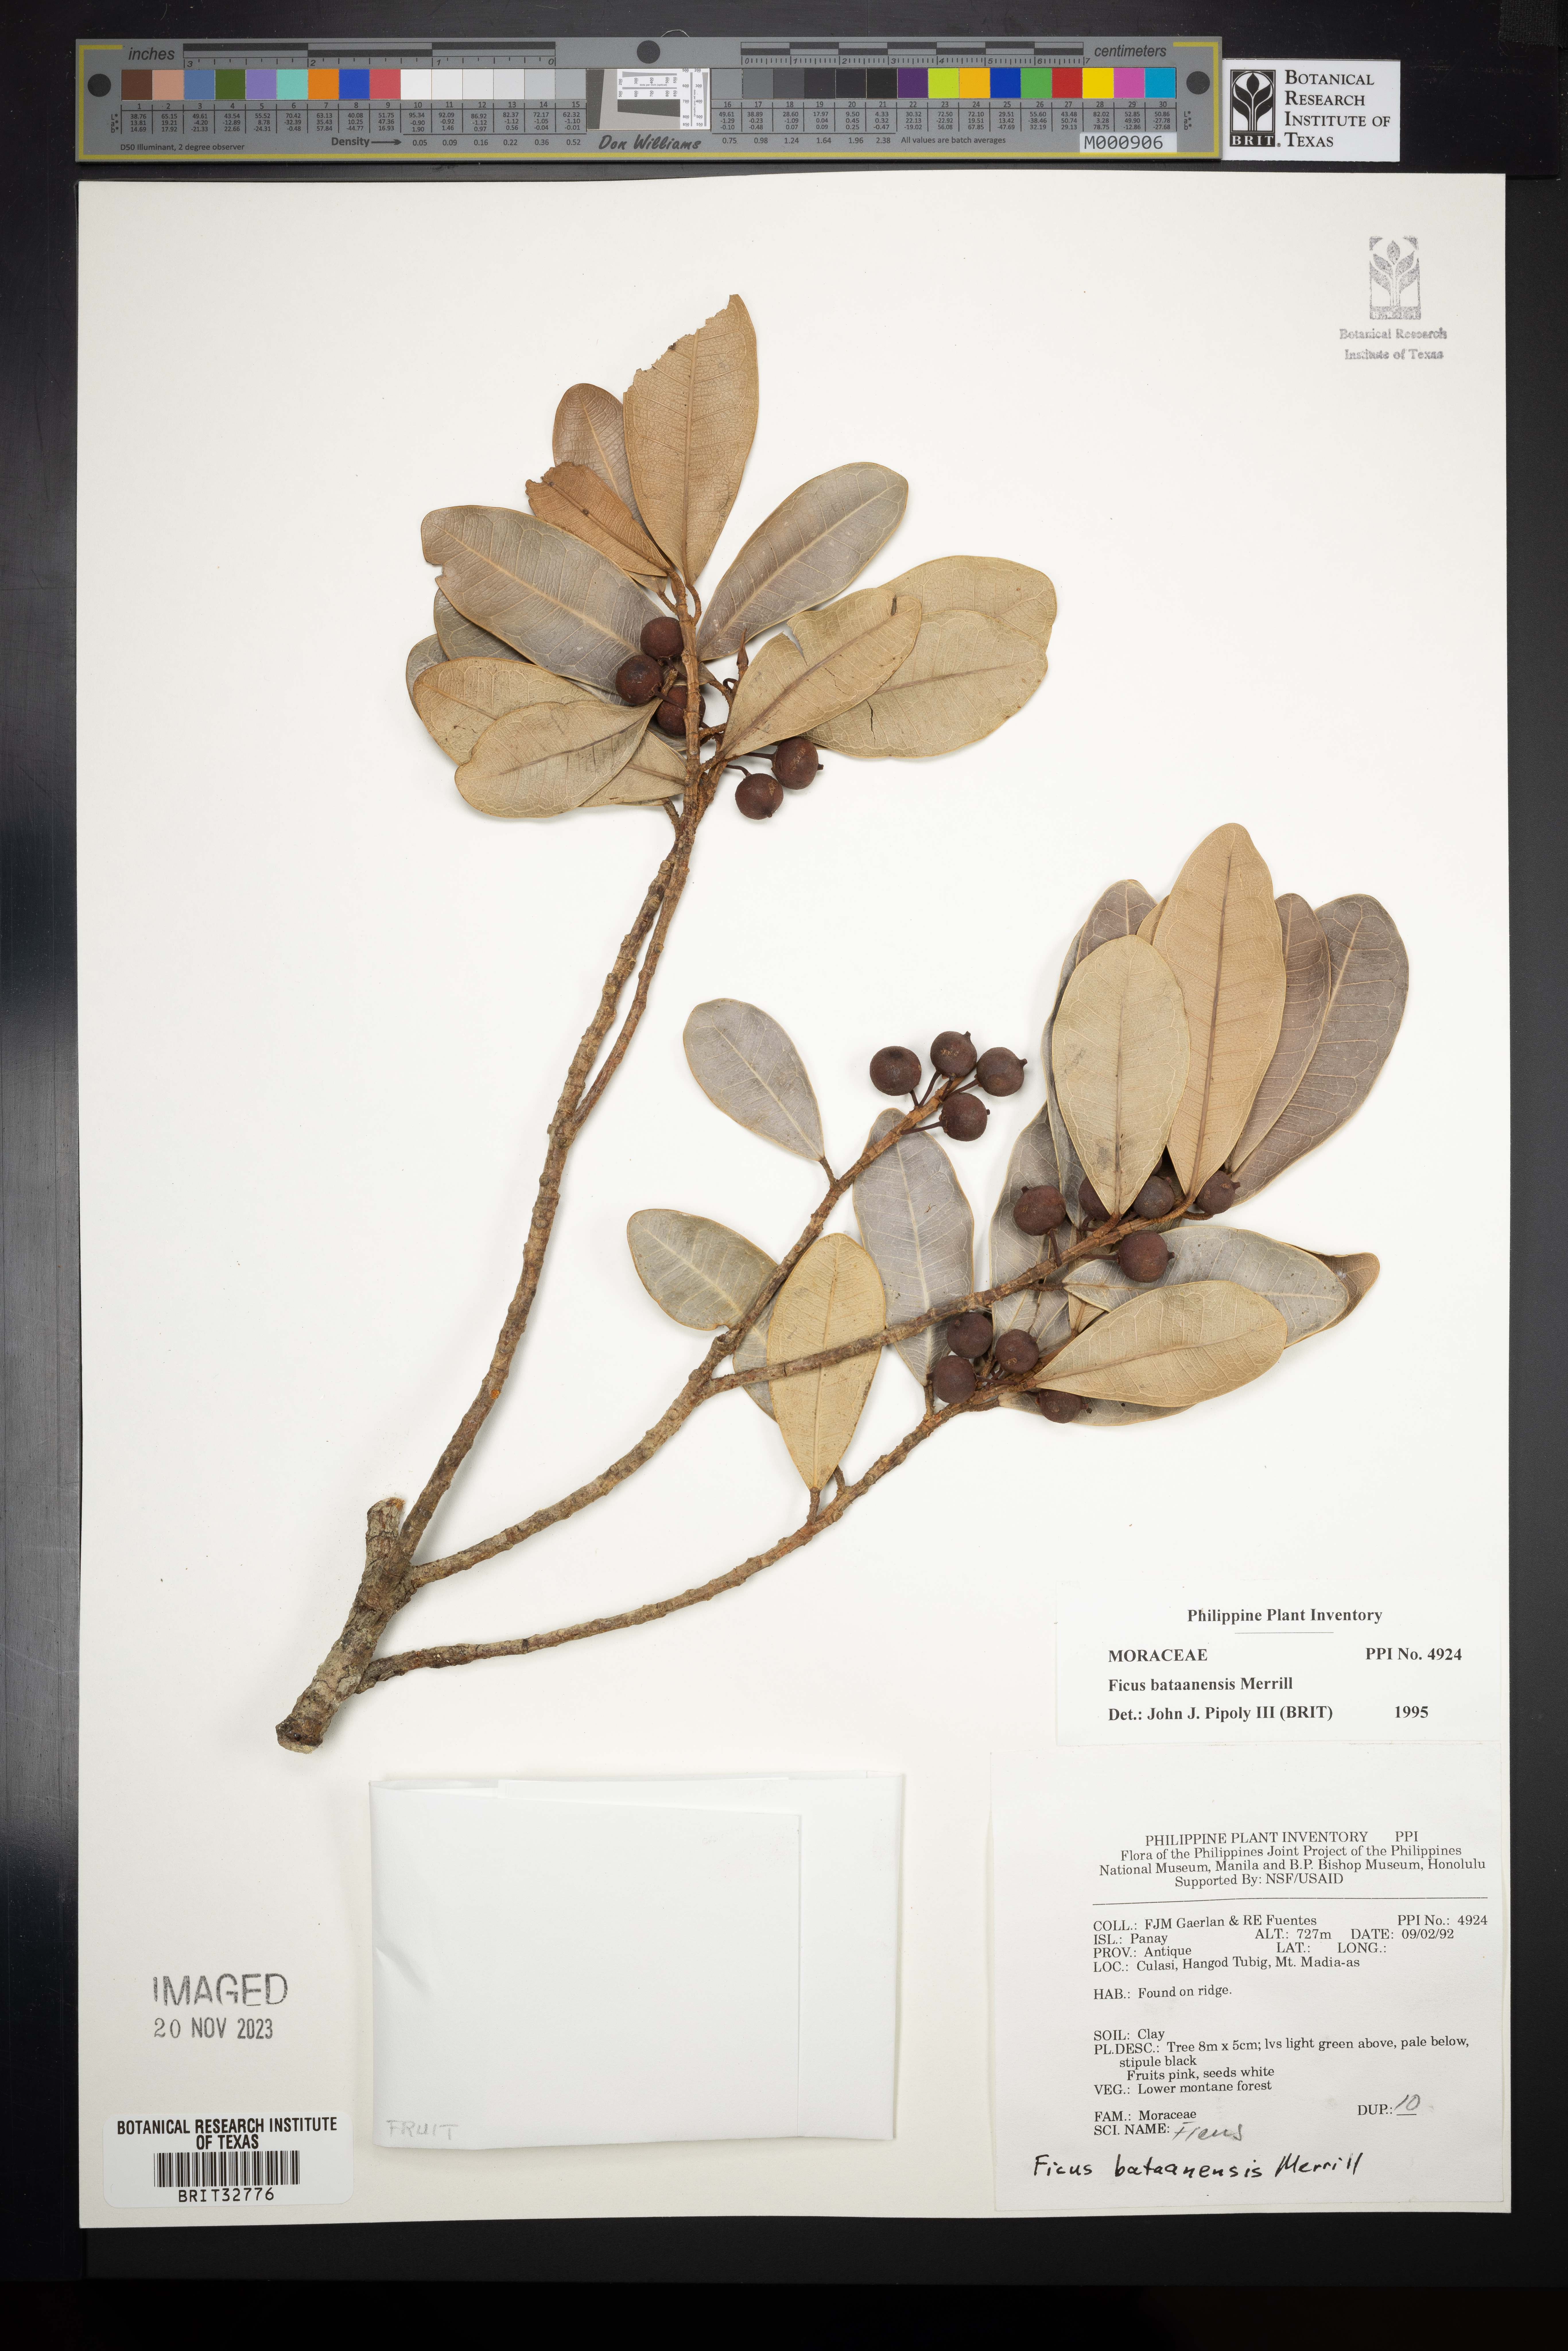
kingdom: Plantae
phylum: Tracheophyta
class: Magnoliopsida
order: Rosales
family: Moraceae
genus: Ficus
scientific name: Ficus bataanensis
